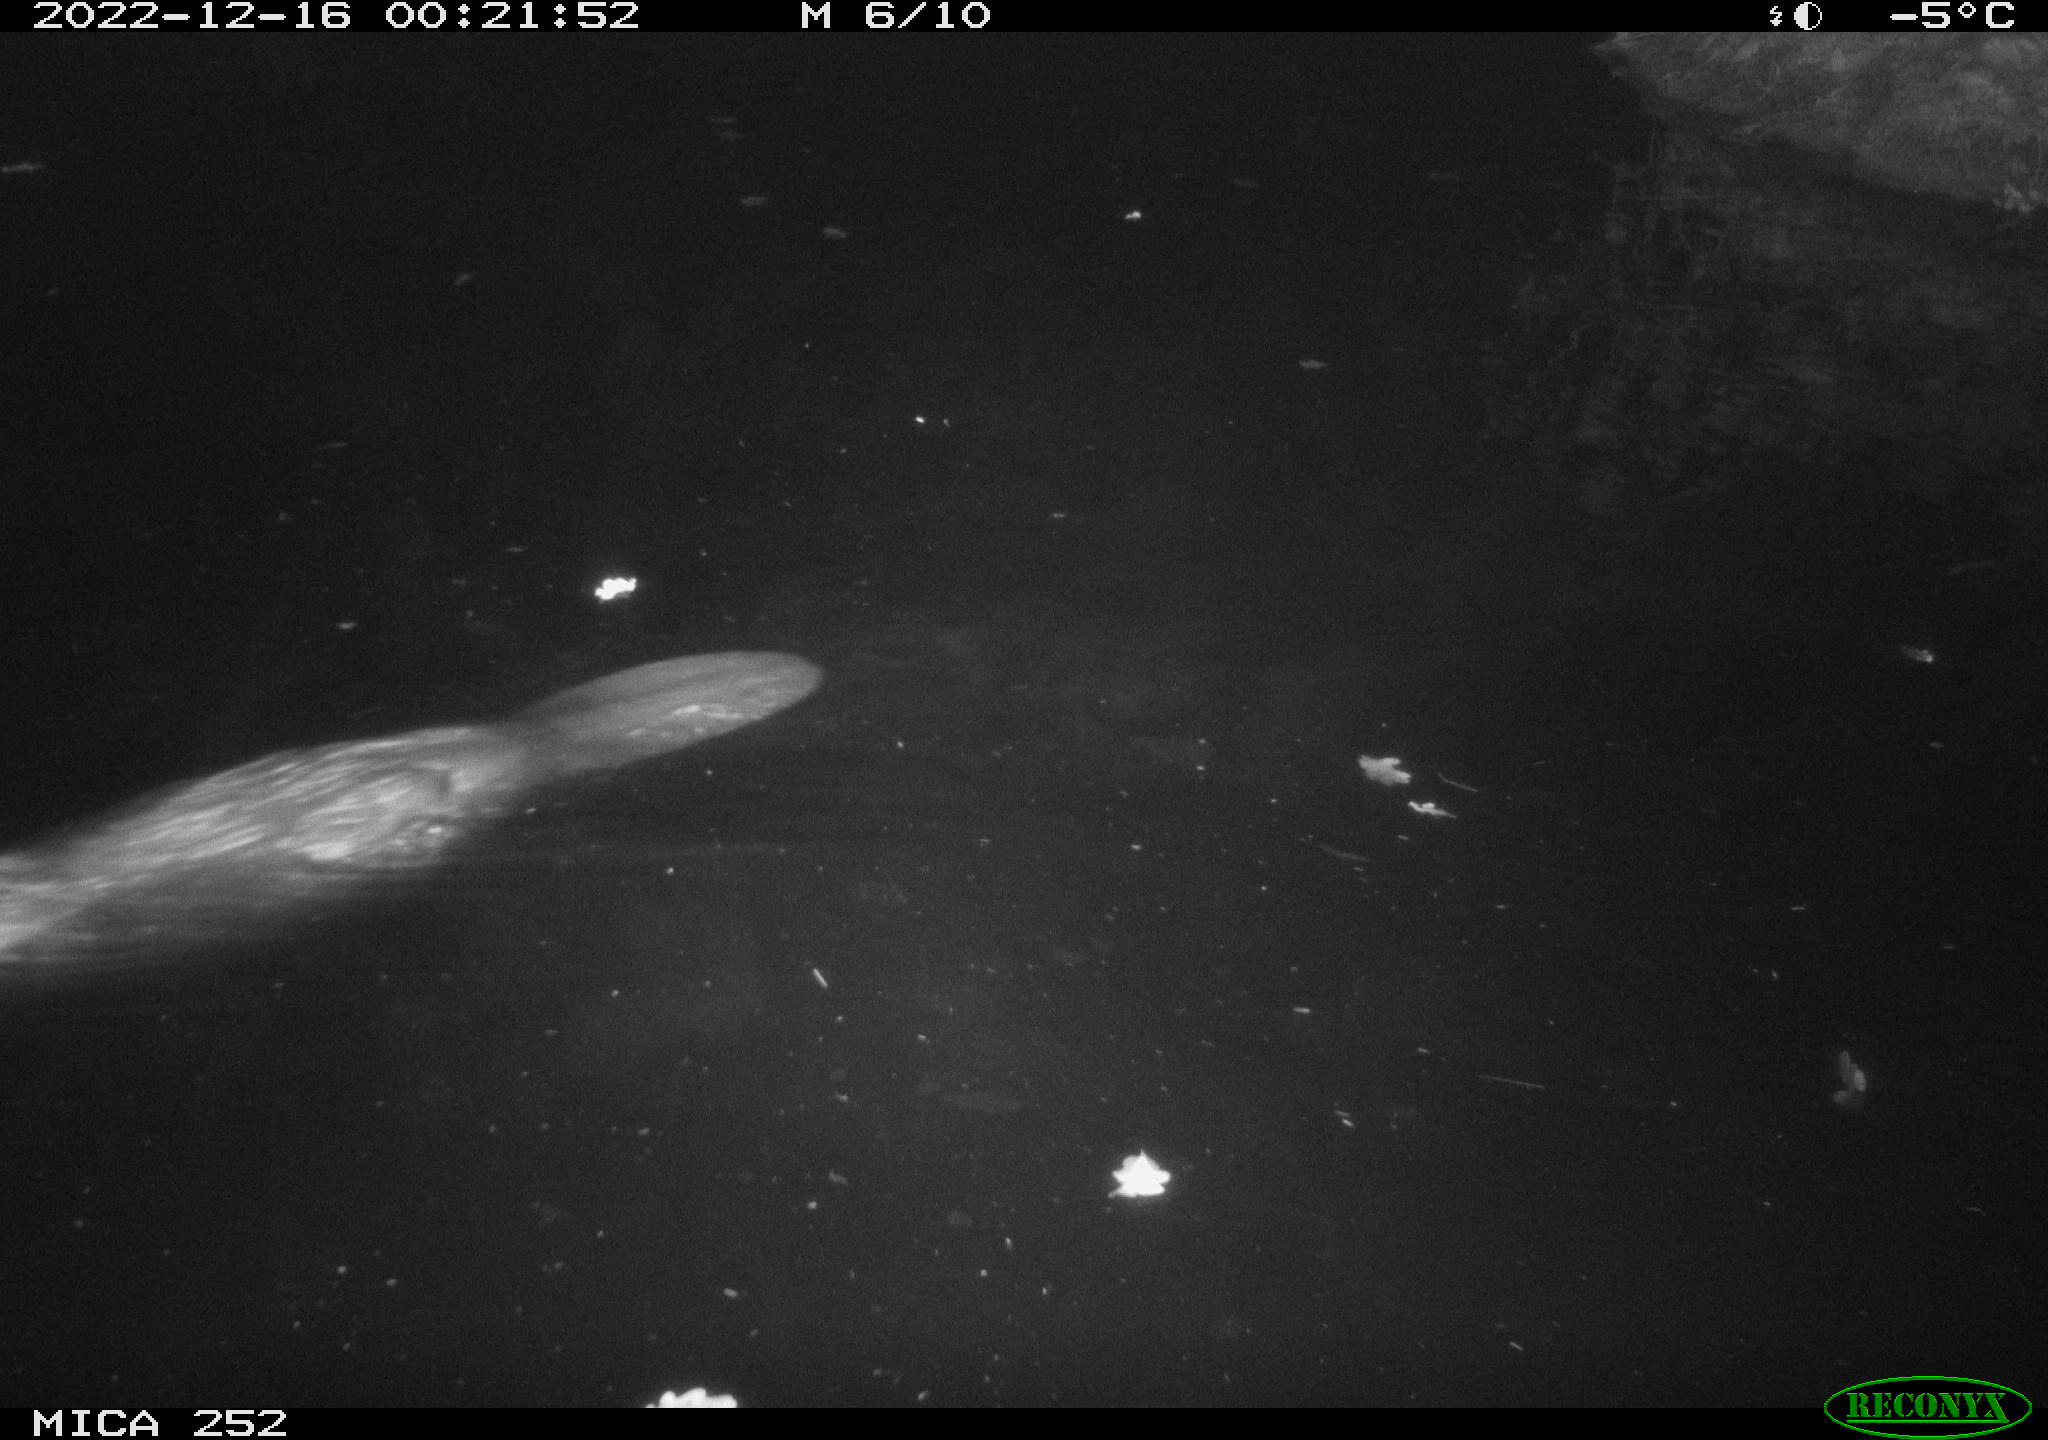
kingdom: Animalia
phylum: Chordata
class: Mammalia
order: Rodentia
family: Castoridae
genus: Castor
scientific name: Castor fiber
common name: Eurasian beaver
